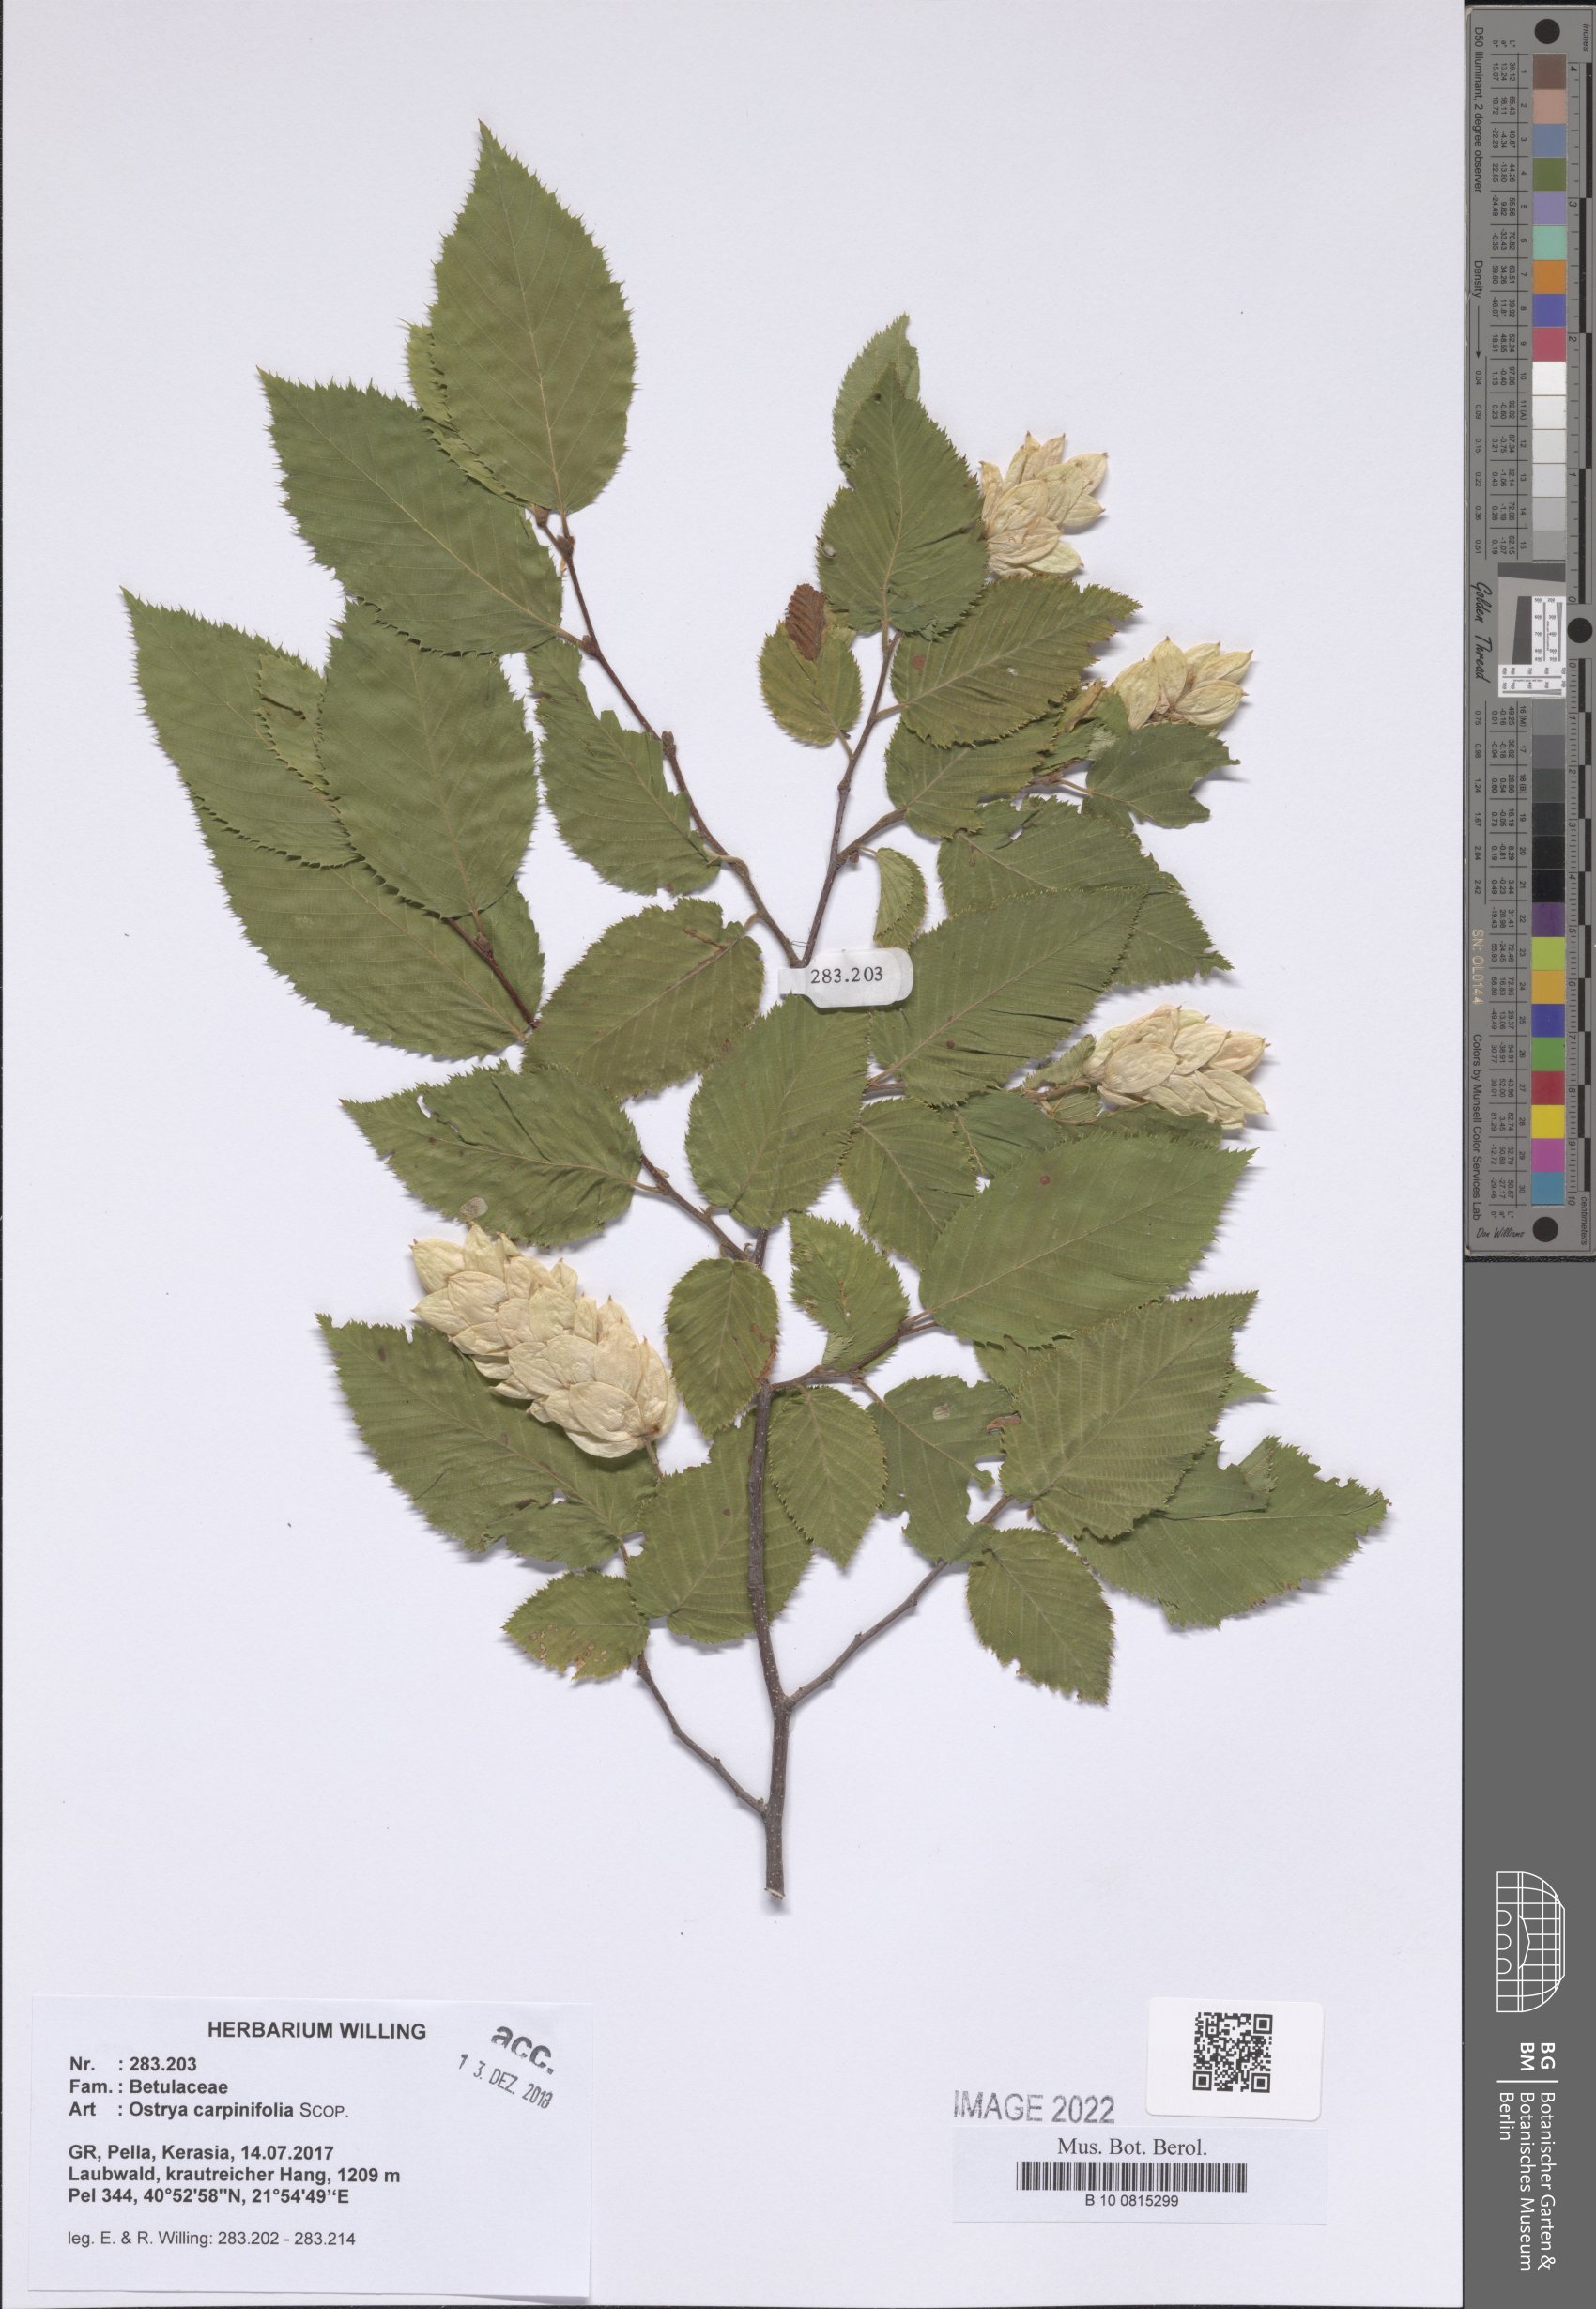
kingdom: Plantae
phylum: Tracheophyta
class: Magnoliopsida
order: Fagales
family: Betulaceae
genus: Ostrya
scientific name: Ostrya carpinifolia
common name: European hop-hornbeam
